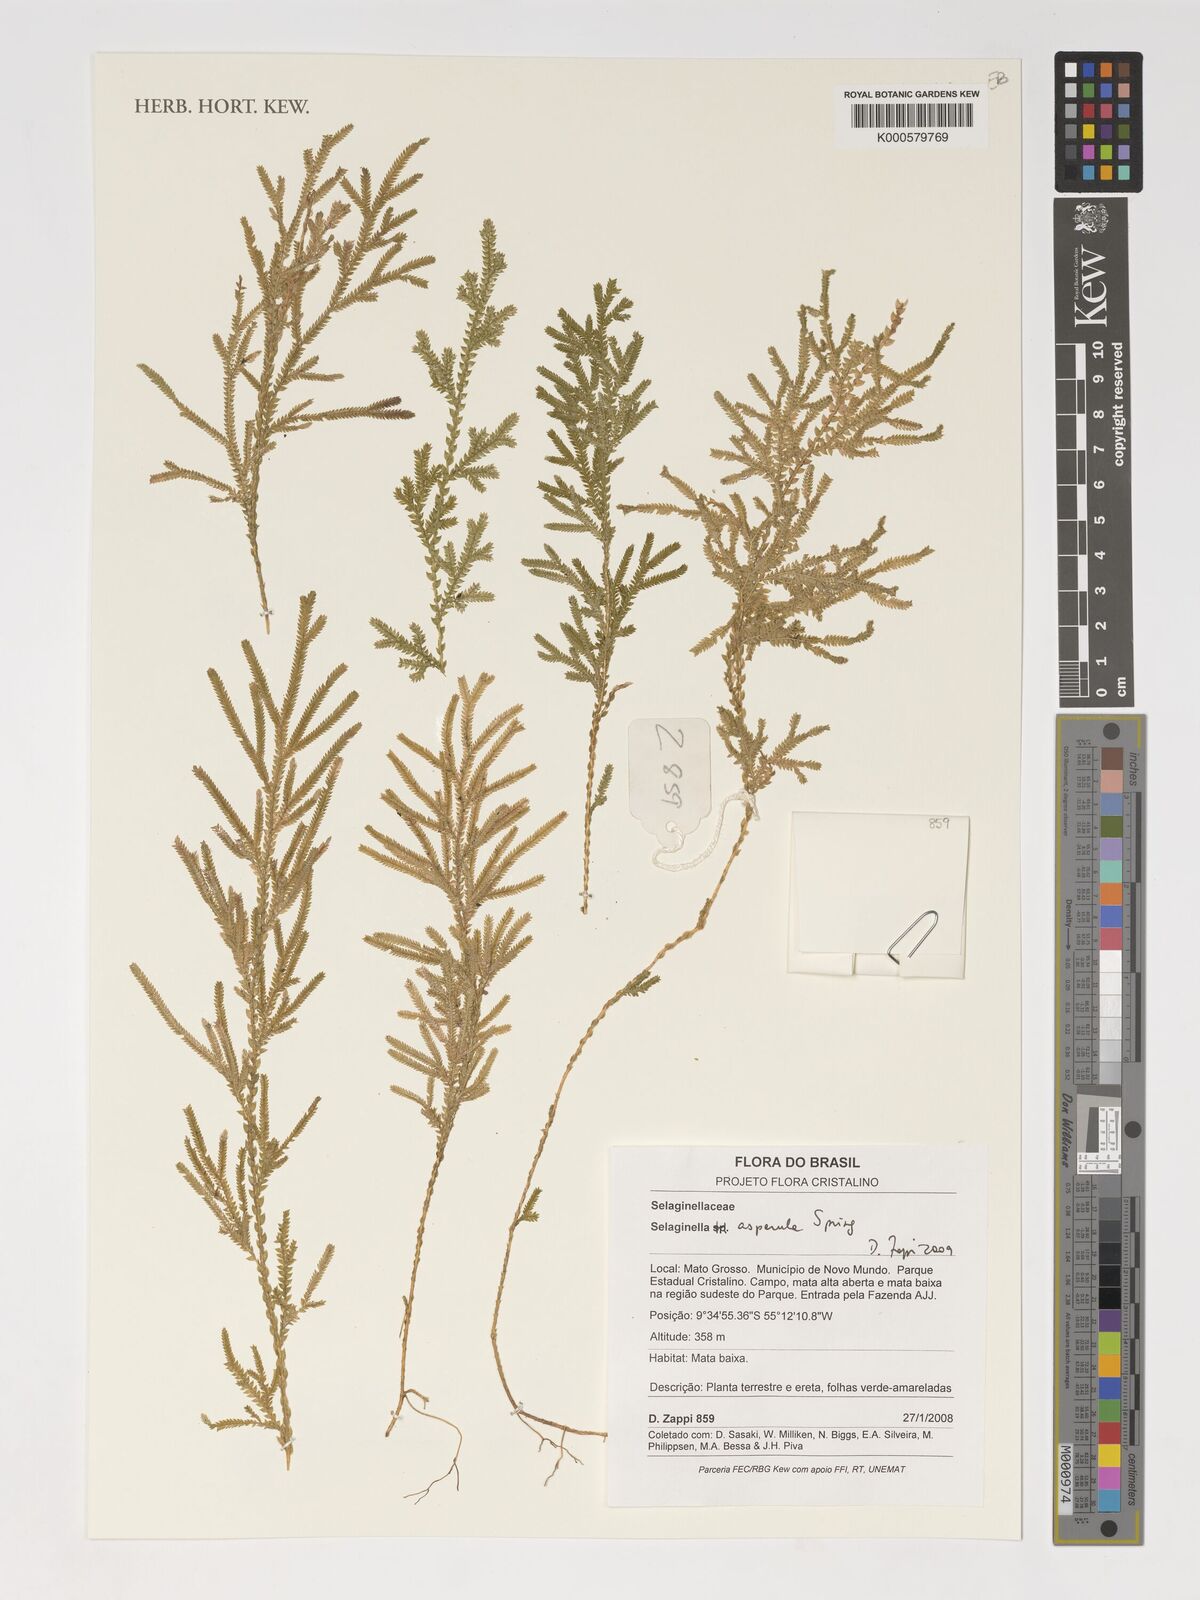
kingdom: Plantae
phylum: Tracheophyta
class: Lycopodiopsida
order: Selaginellales
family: Selaginellaceae
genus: Selaginella
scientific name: Selaginella asperula
